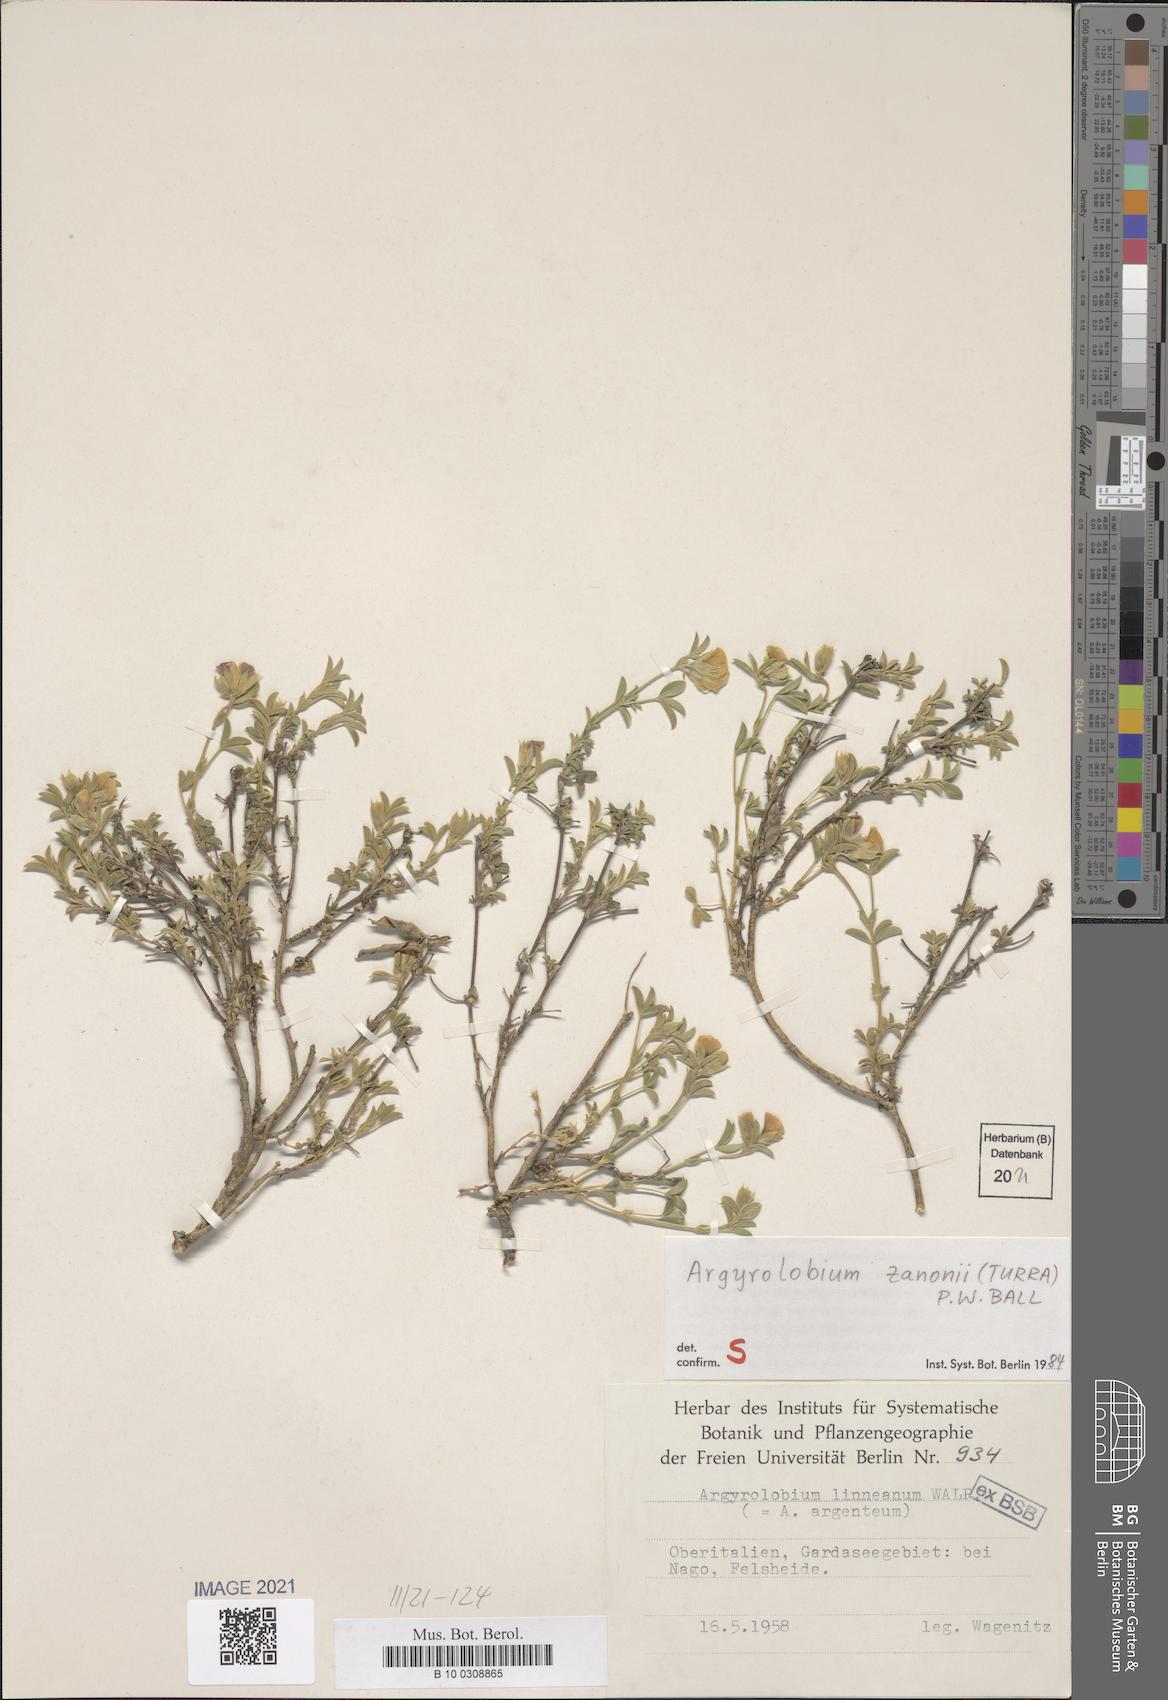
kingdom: Plantae
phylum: Tracheophyta
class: Magnoliopsida
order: Fabales
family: Fabaceae
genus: Argyrolobium
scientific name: Argyrolobium zanonii
